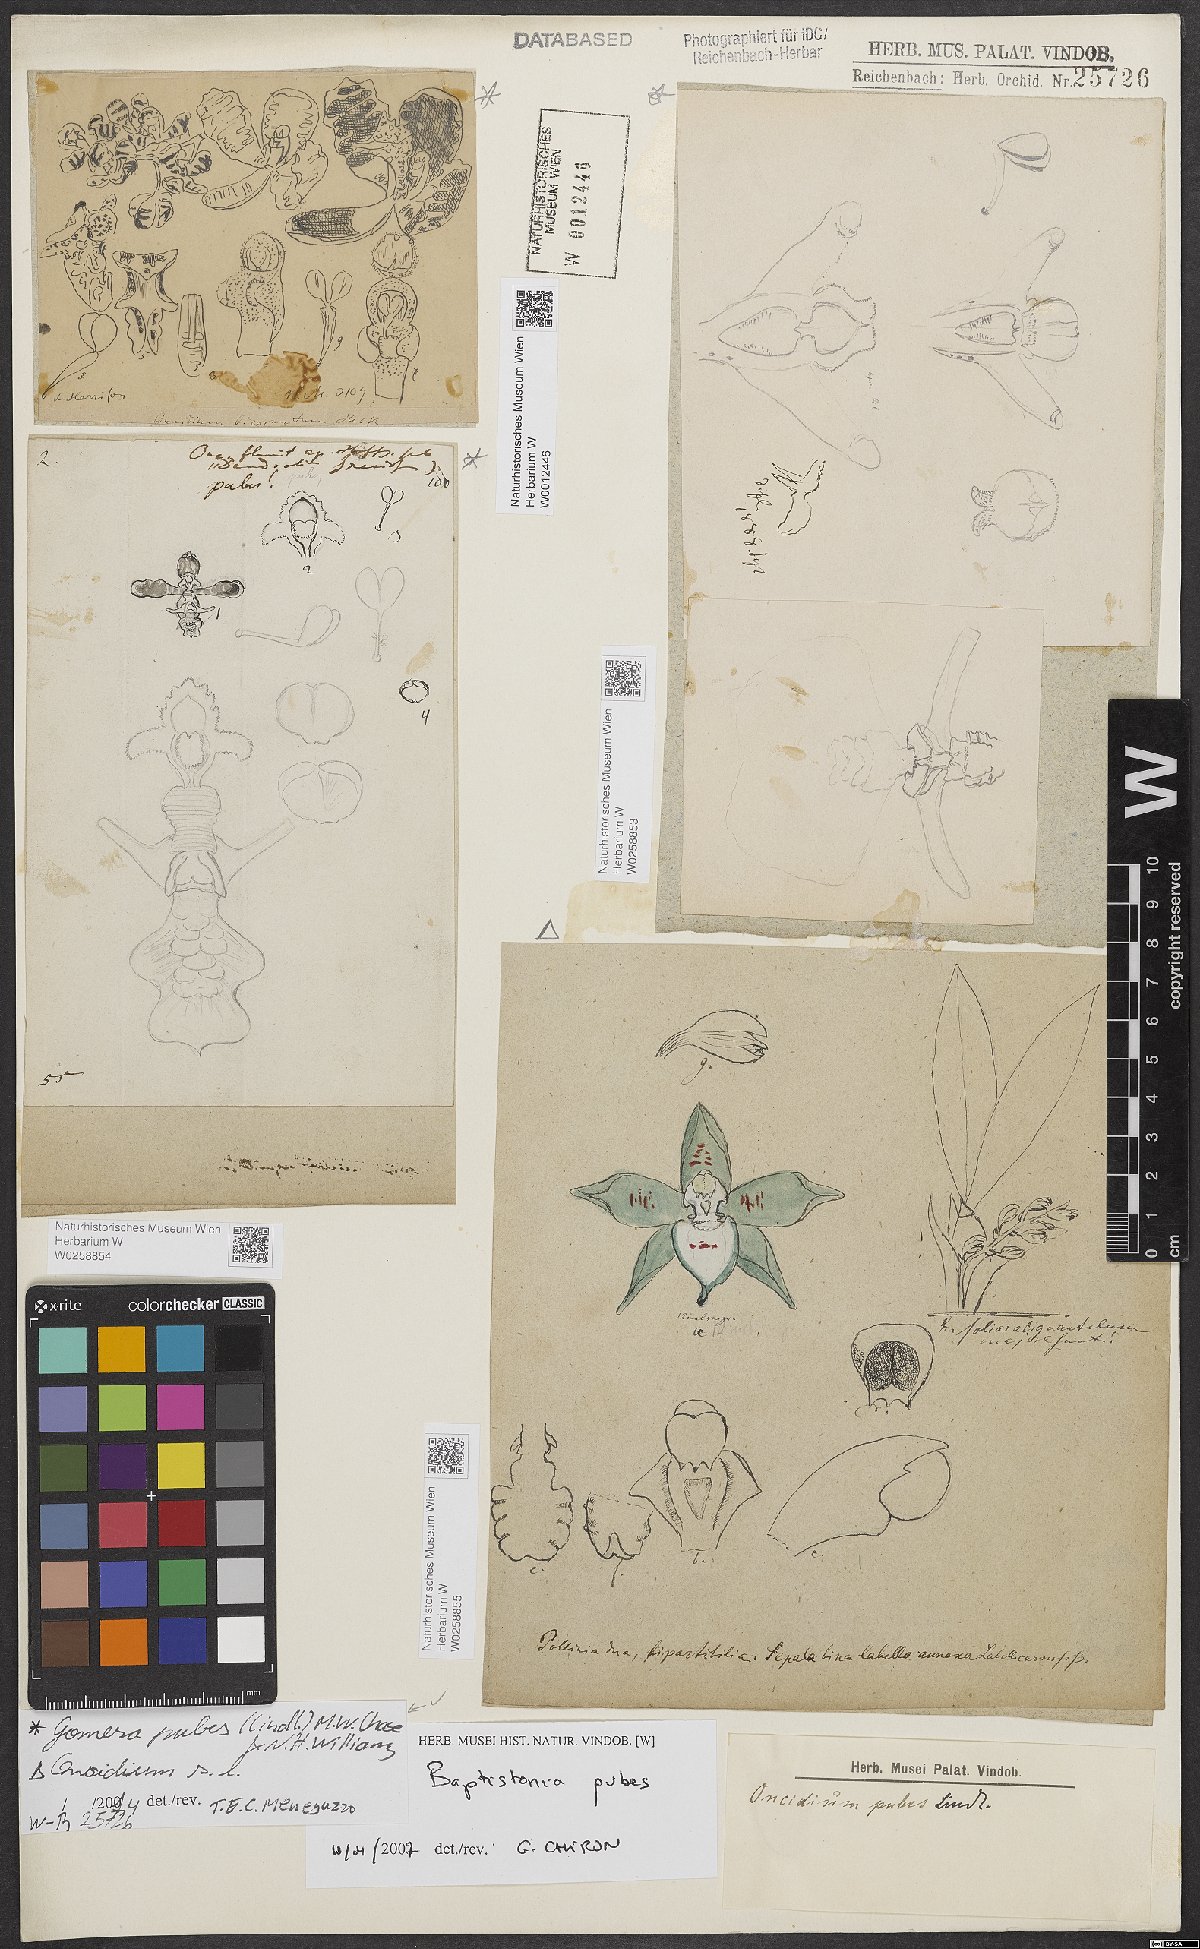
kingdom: Plantae
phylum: Tracheophyta
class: Liliopsida
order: Asparagales
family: Orchidaceae
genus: Gomesa
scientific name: Gomesa pubes
